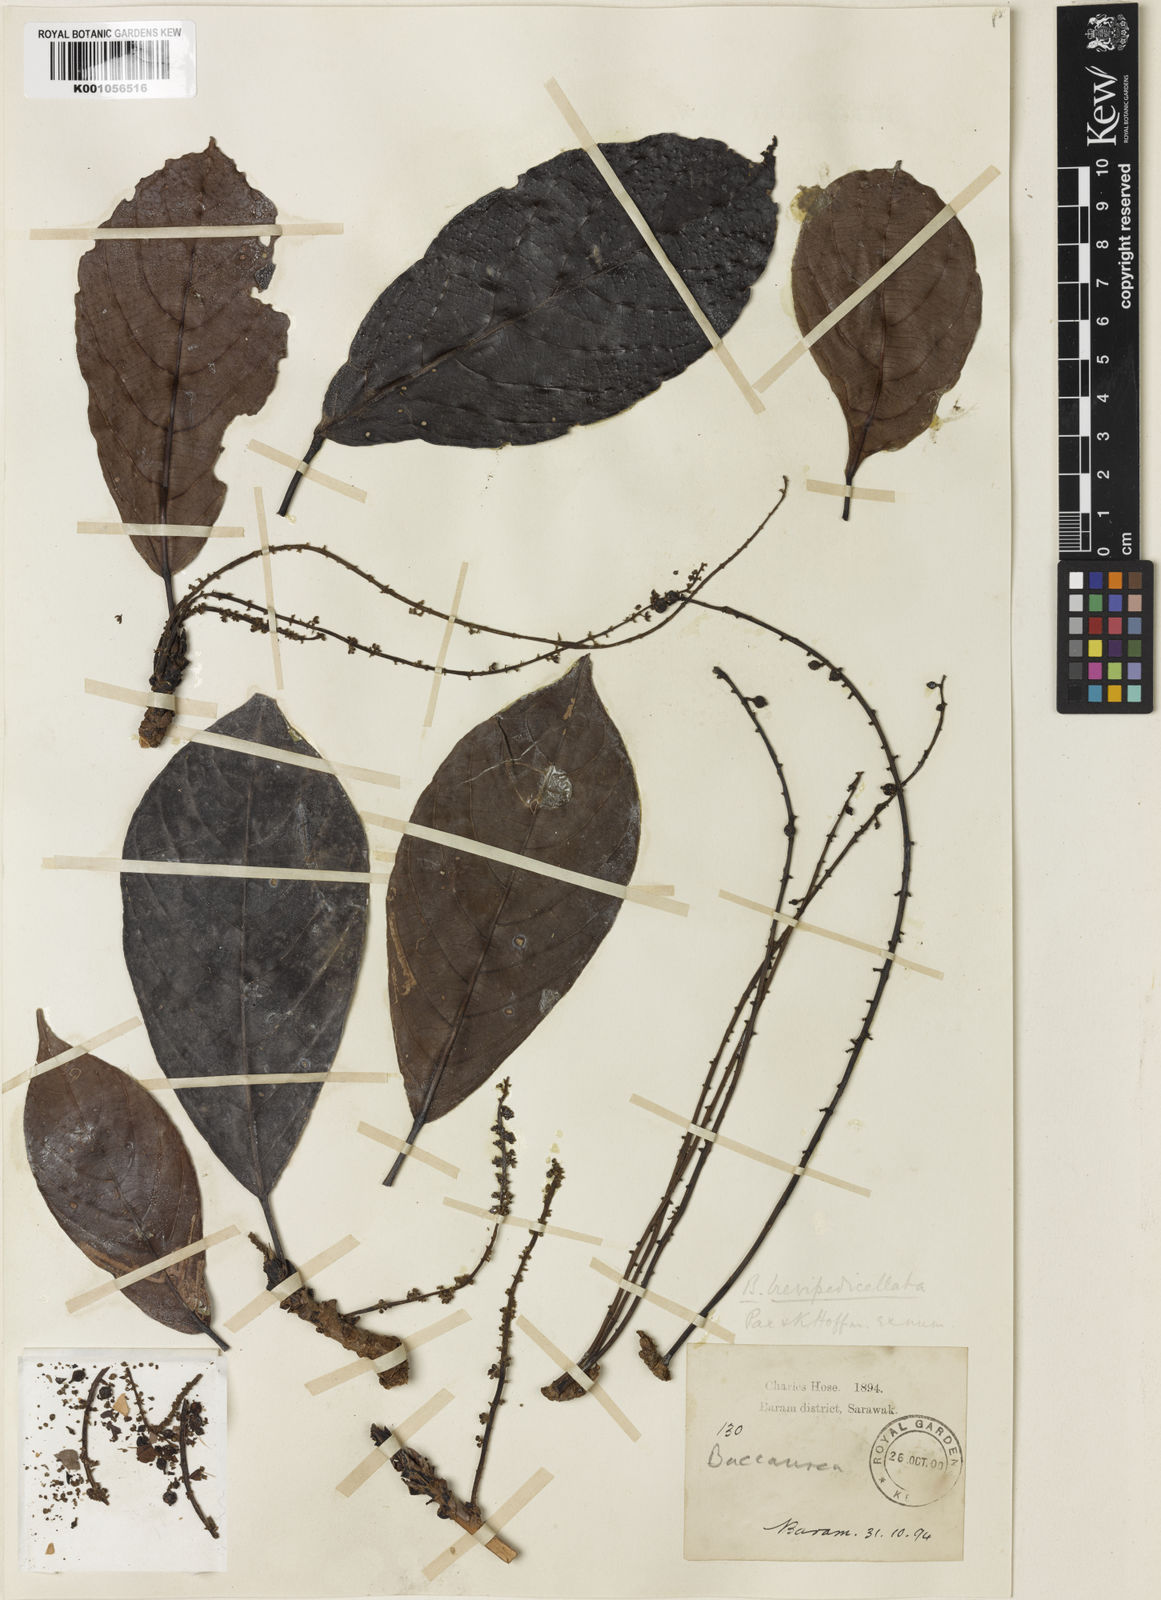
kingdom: Plantae
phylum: Tracheophyta
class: Magnoliopsida
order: Malpighiales
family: Phyllanthaceae
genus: Baccaurea
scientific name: Baccaurea tetrandra
